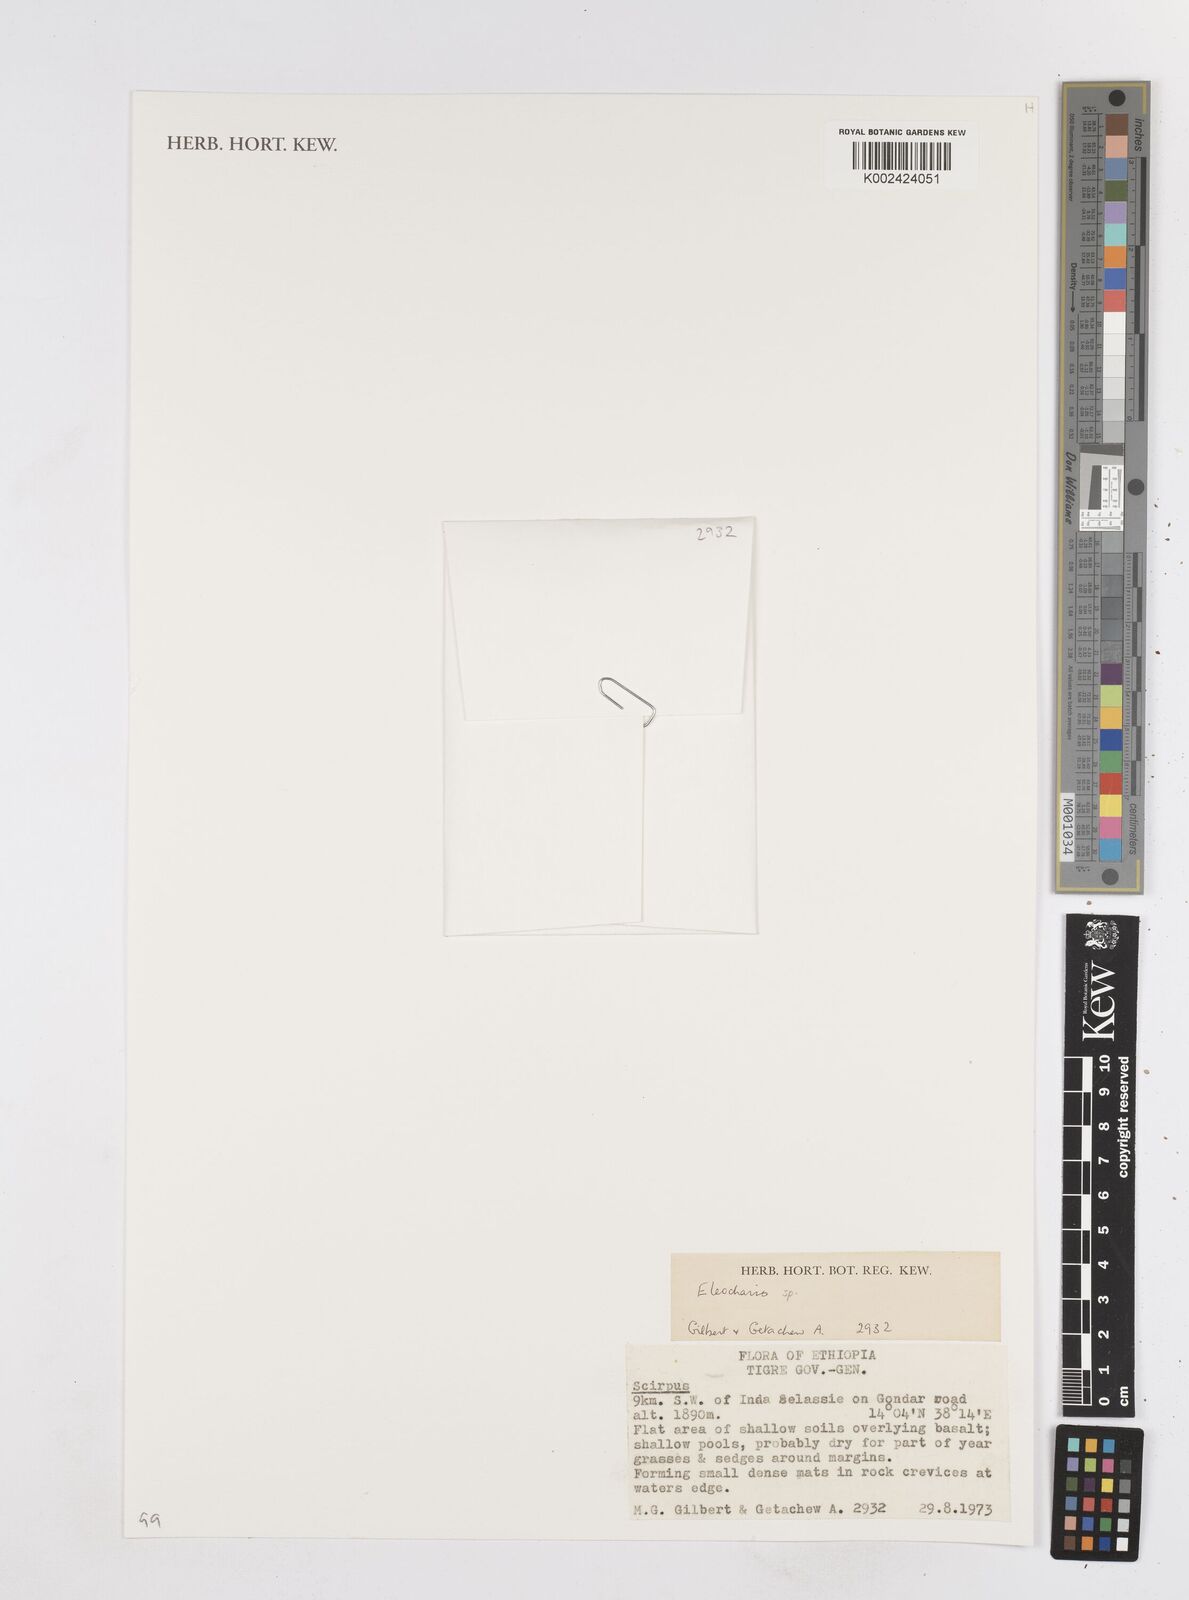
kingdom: Plantae
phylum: Tracheophyta
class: Liliopsida
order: Poales
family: Cyperaceae
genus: Eleocharis
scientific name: Eleocharis
